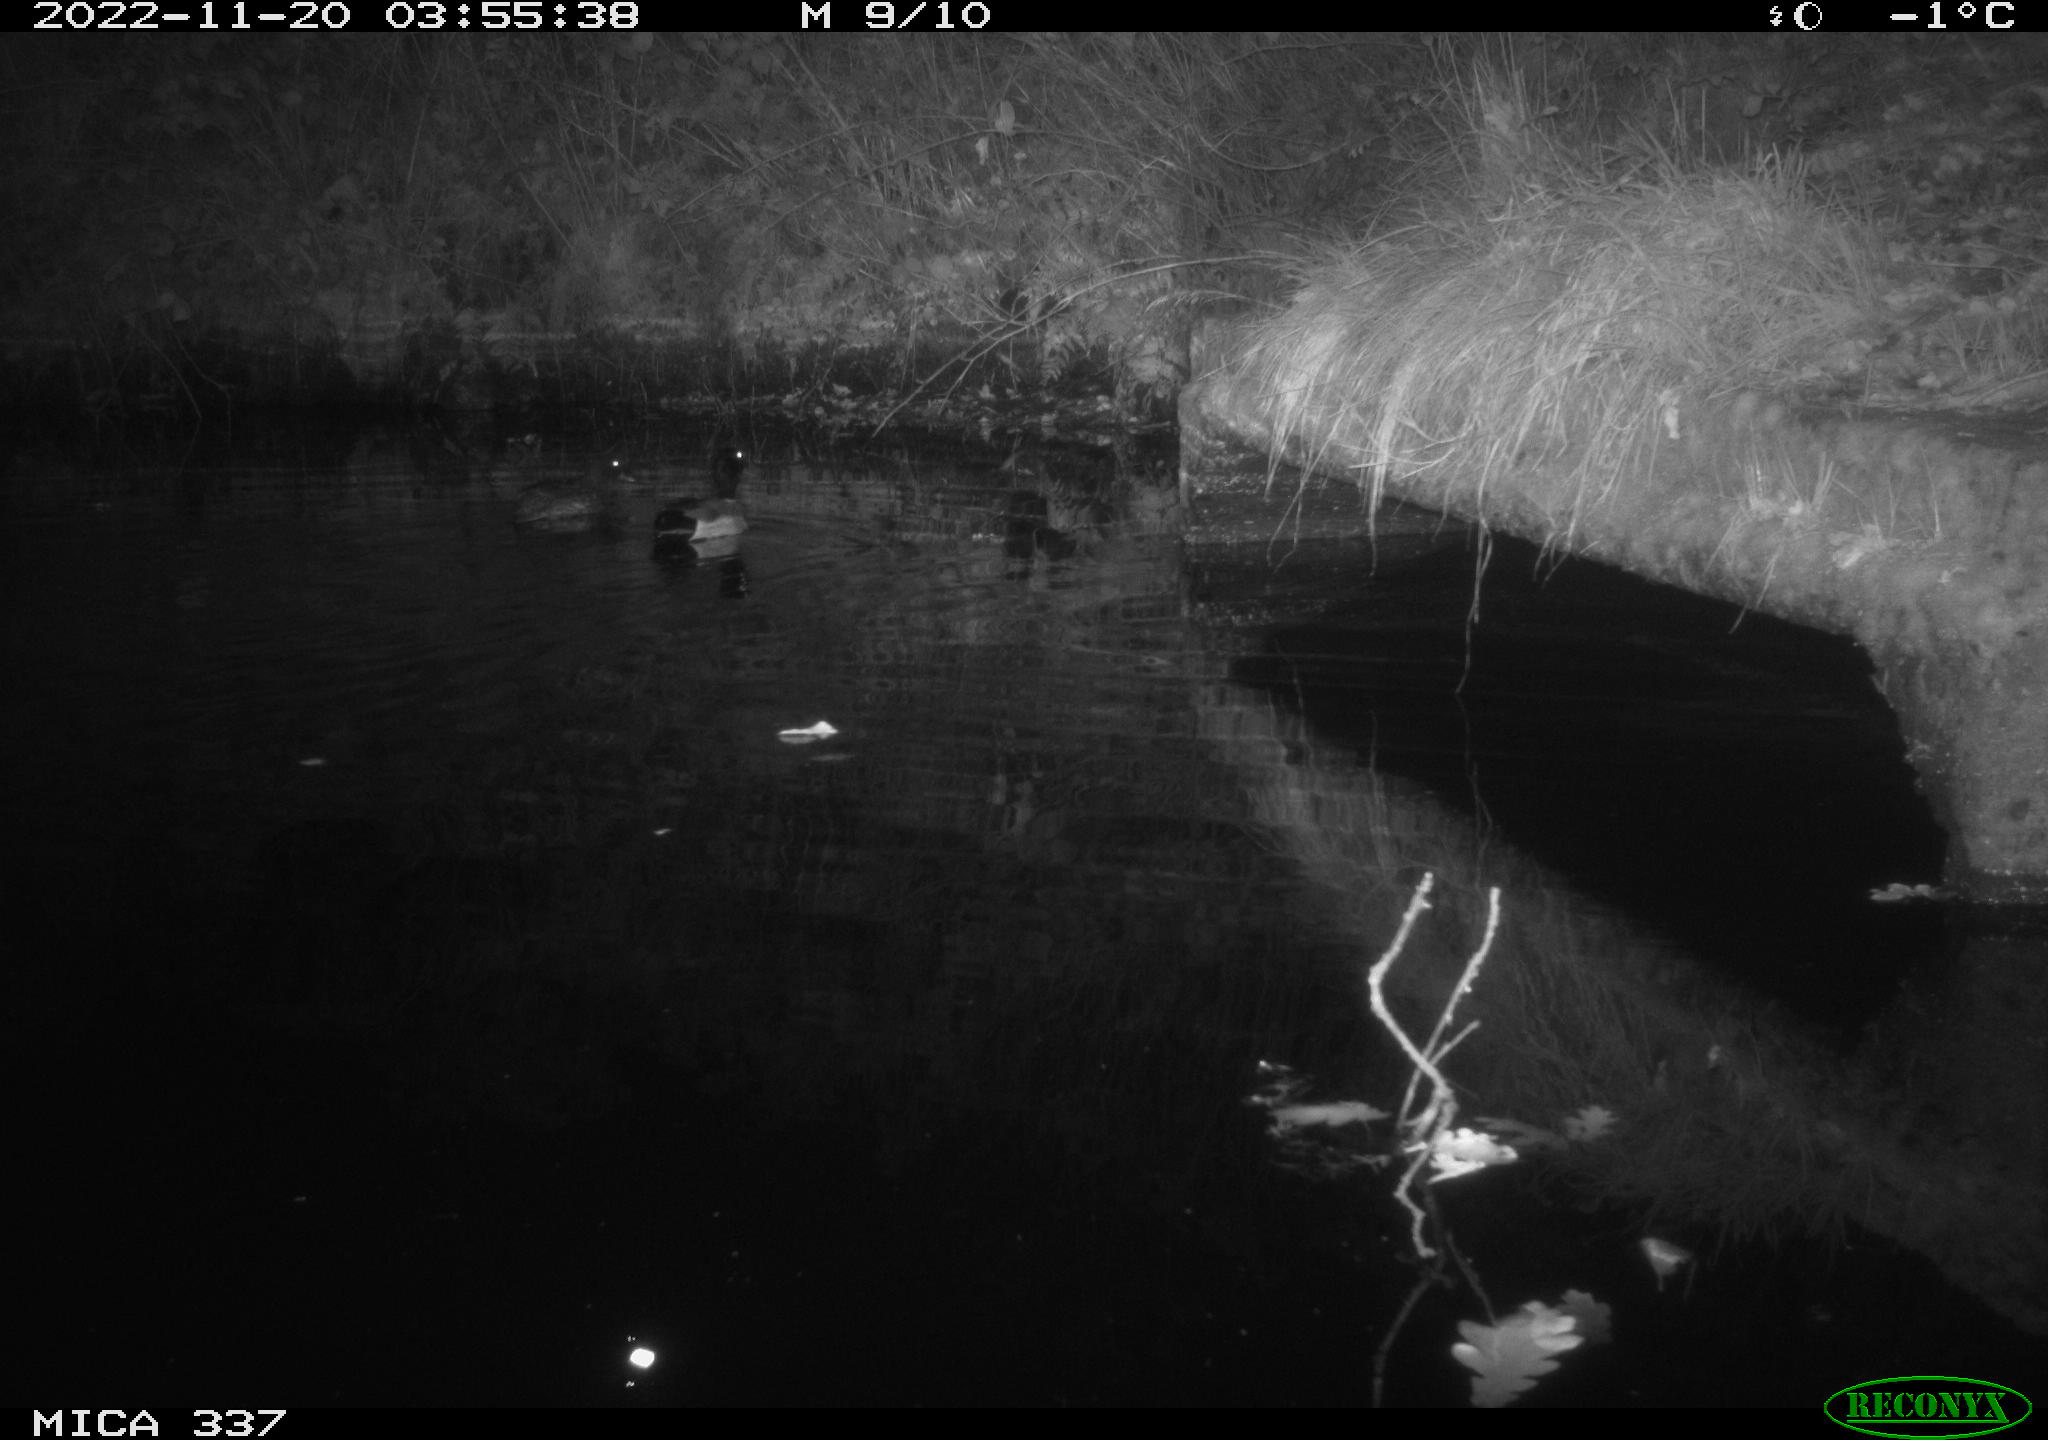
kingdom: Animalia
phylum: Chordata
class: Aves
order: Anseriformes
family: Anatidae
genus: Anas
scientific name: Anas platyrhynchos
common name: Mallard
